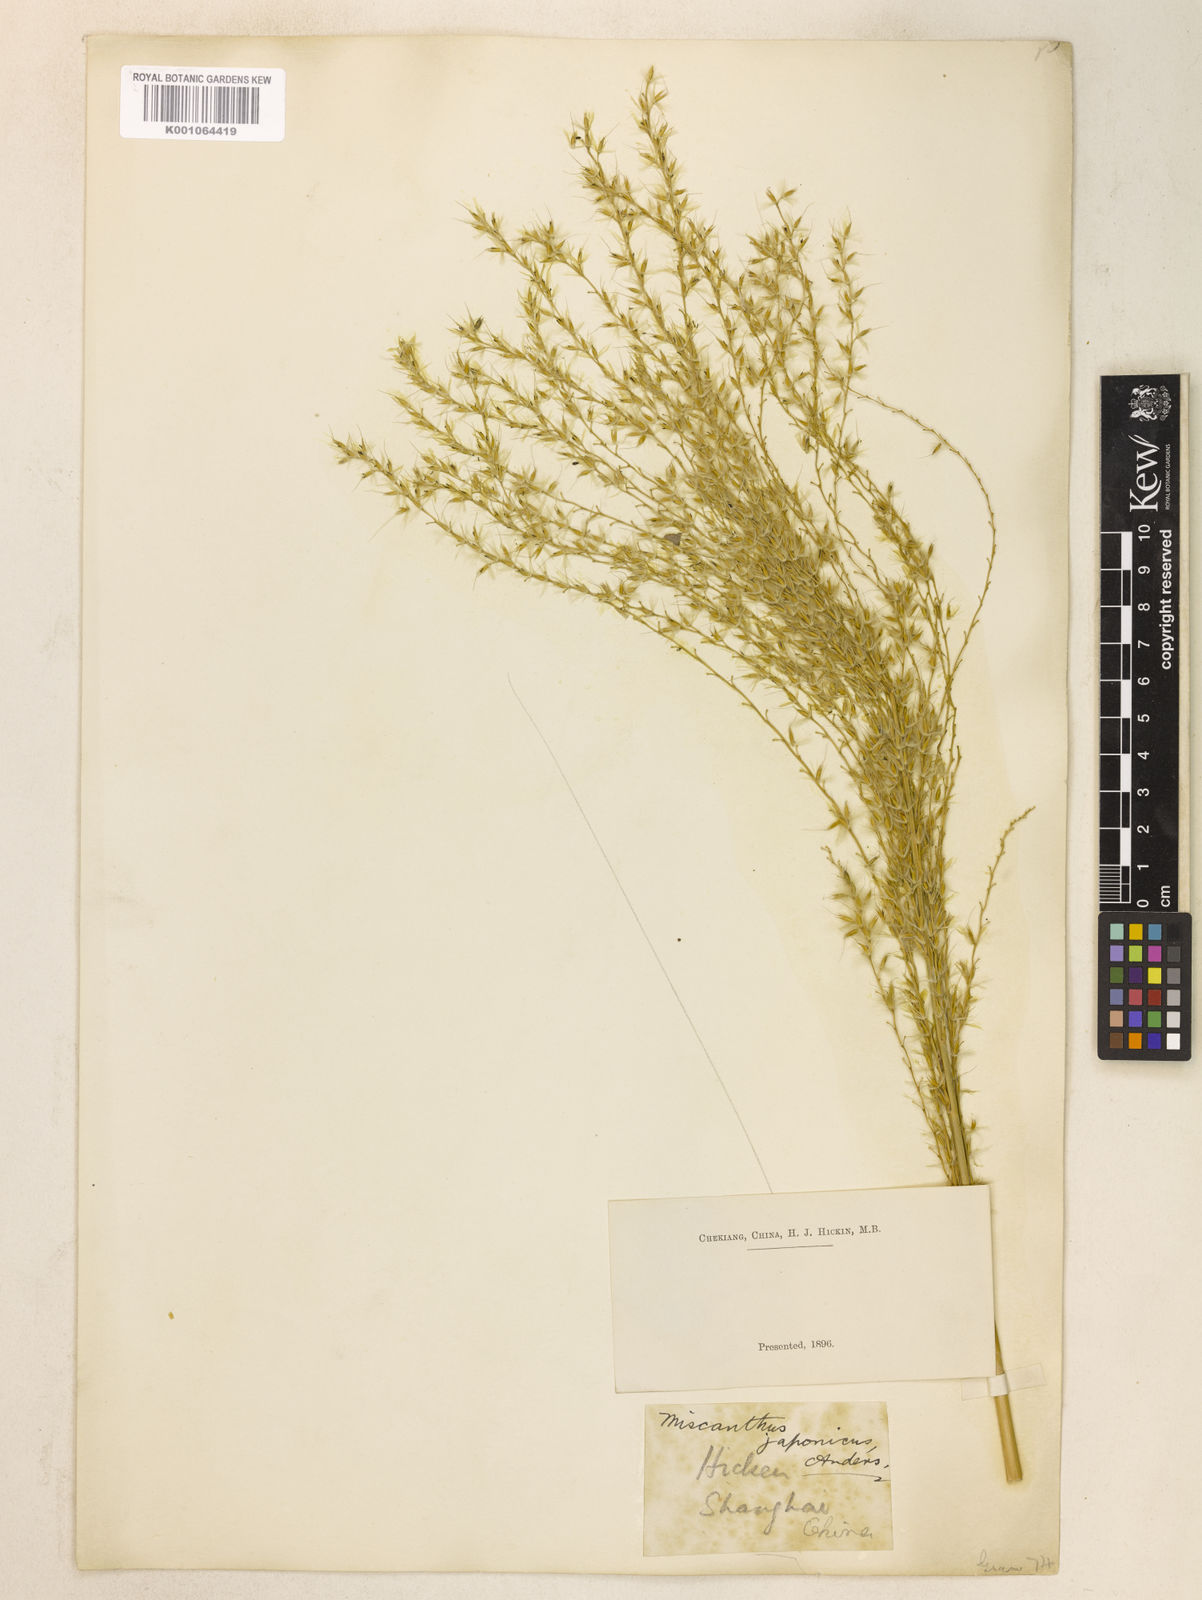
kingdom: Plantae
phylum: Tracheophyta
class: Liliopsida
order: Poales
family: Poaceae
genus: Miscanthus
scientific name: Miscanthus sinensis
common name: Chinese silvergrass
